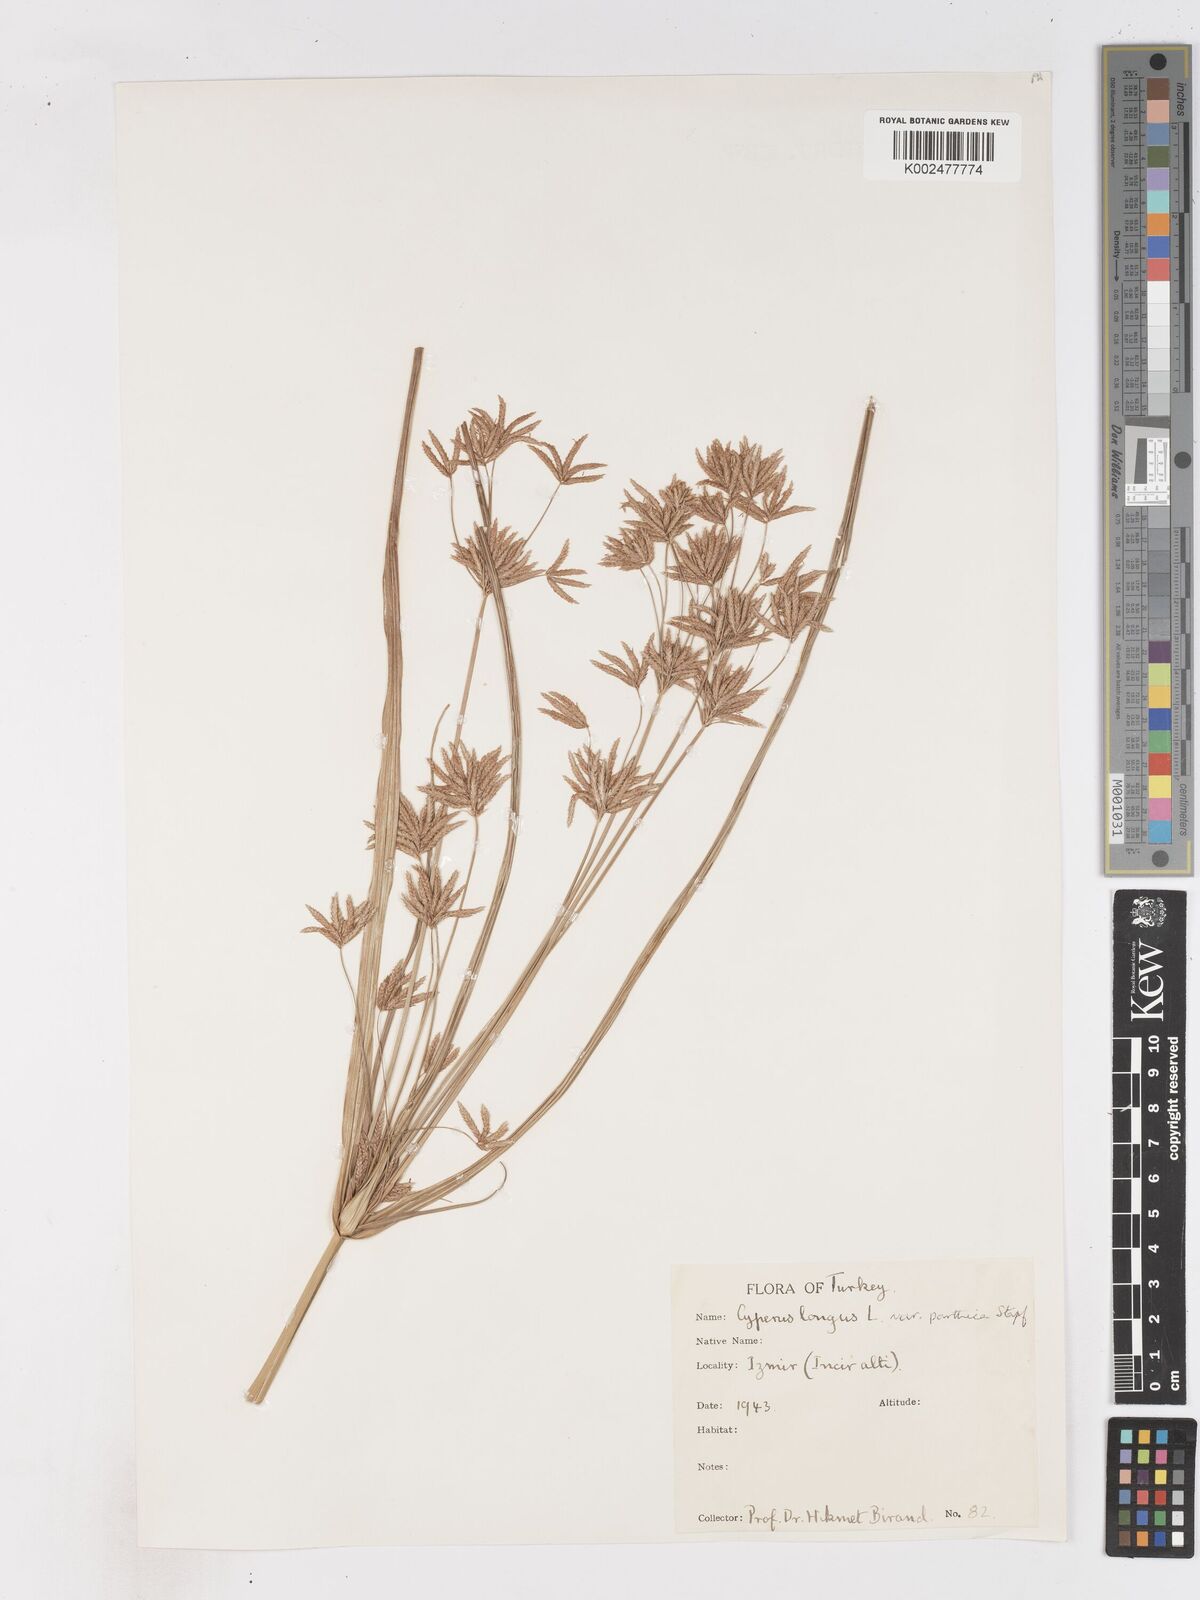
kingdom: Plantae
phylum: Tracheophyta
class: Liliopsida
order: Poales
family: Cyperaceae
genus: Cyperus
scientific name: Cyperus longus
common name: Galingale
